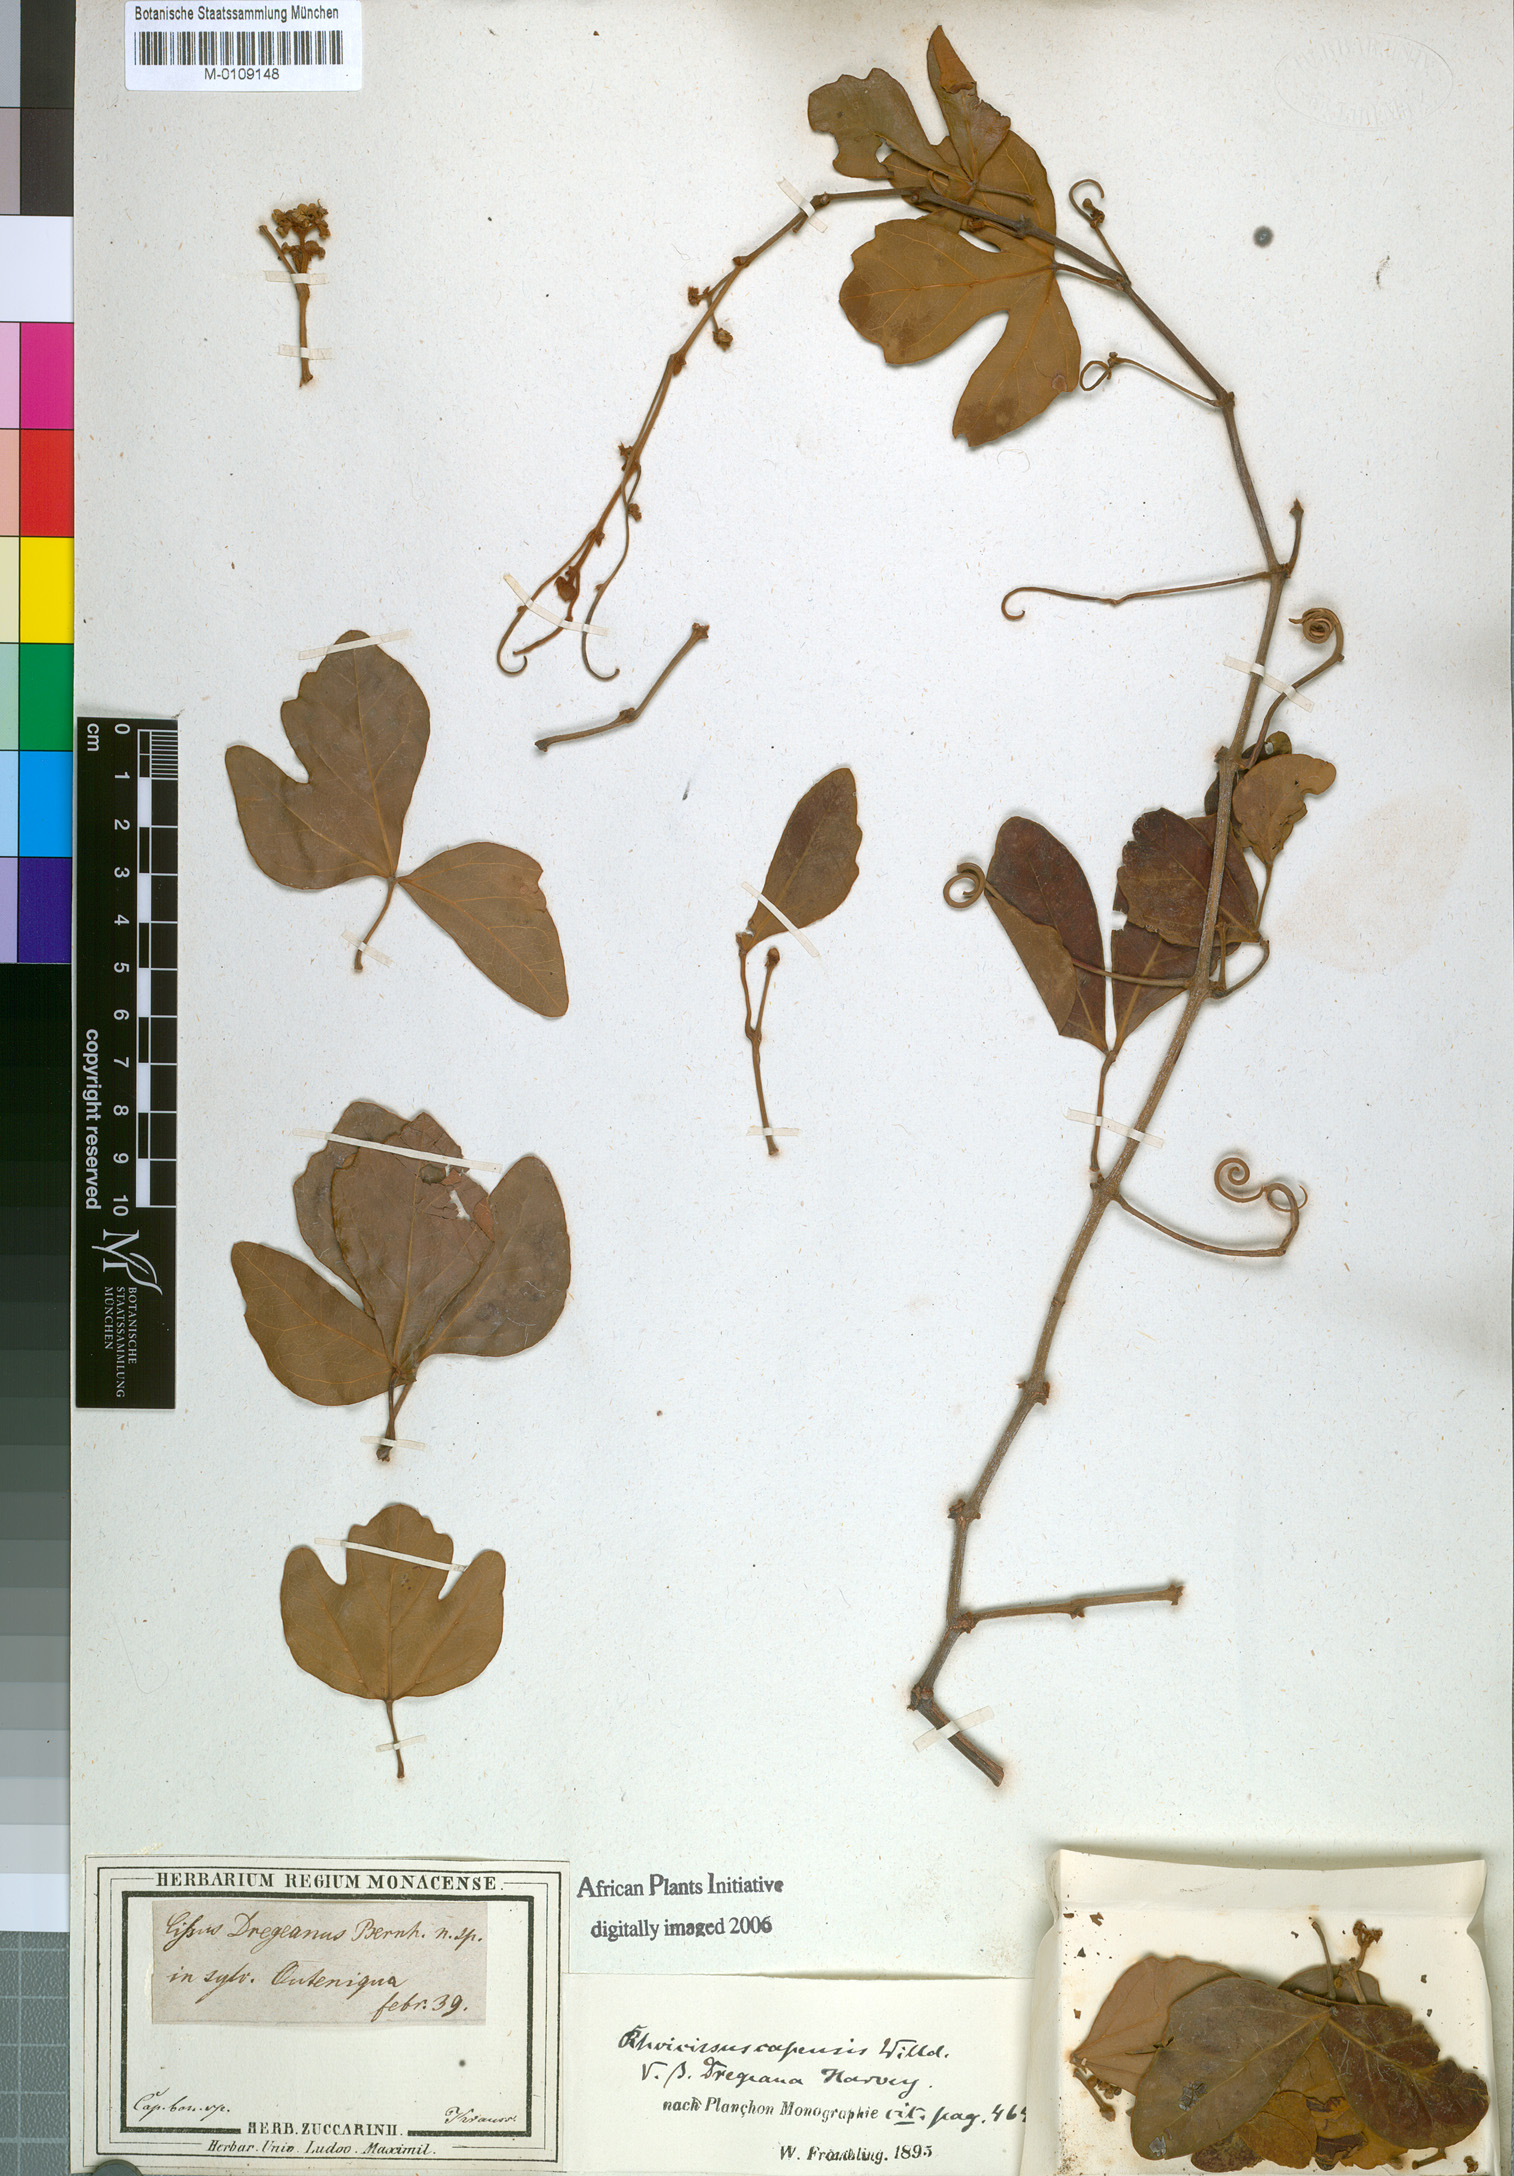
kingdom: Plantae
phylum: Tracheophyta
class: Magnoliopsida
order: Vitales
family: Vitaceae
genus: Rhoicissus
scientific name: Rhoicissus tomentosa
